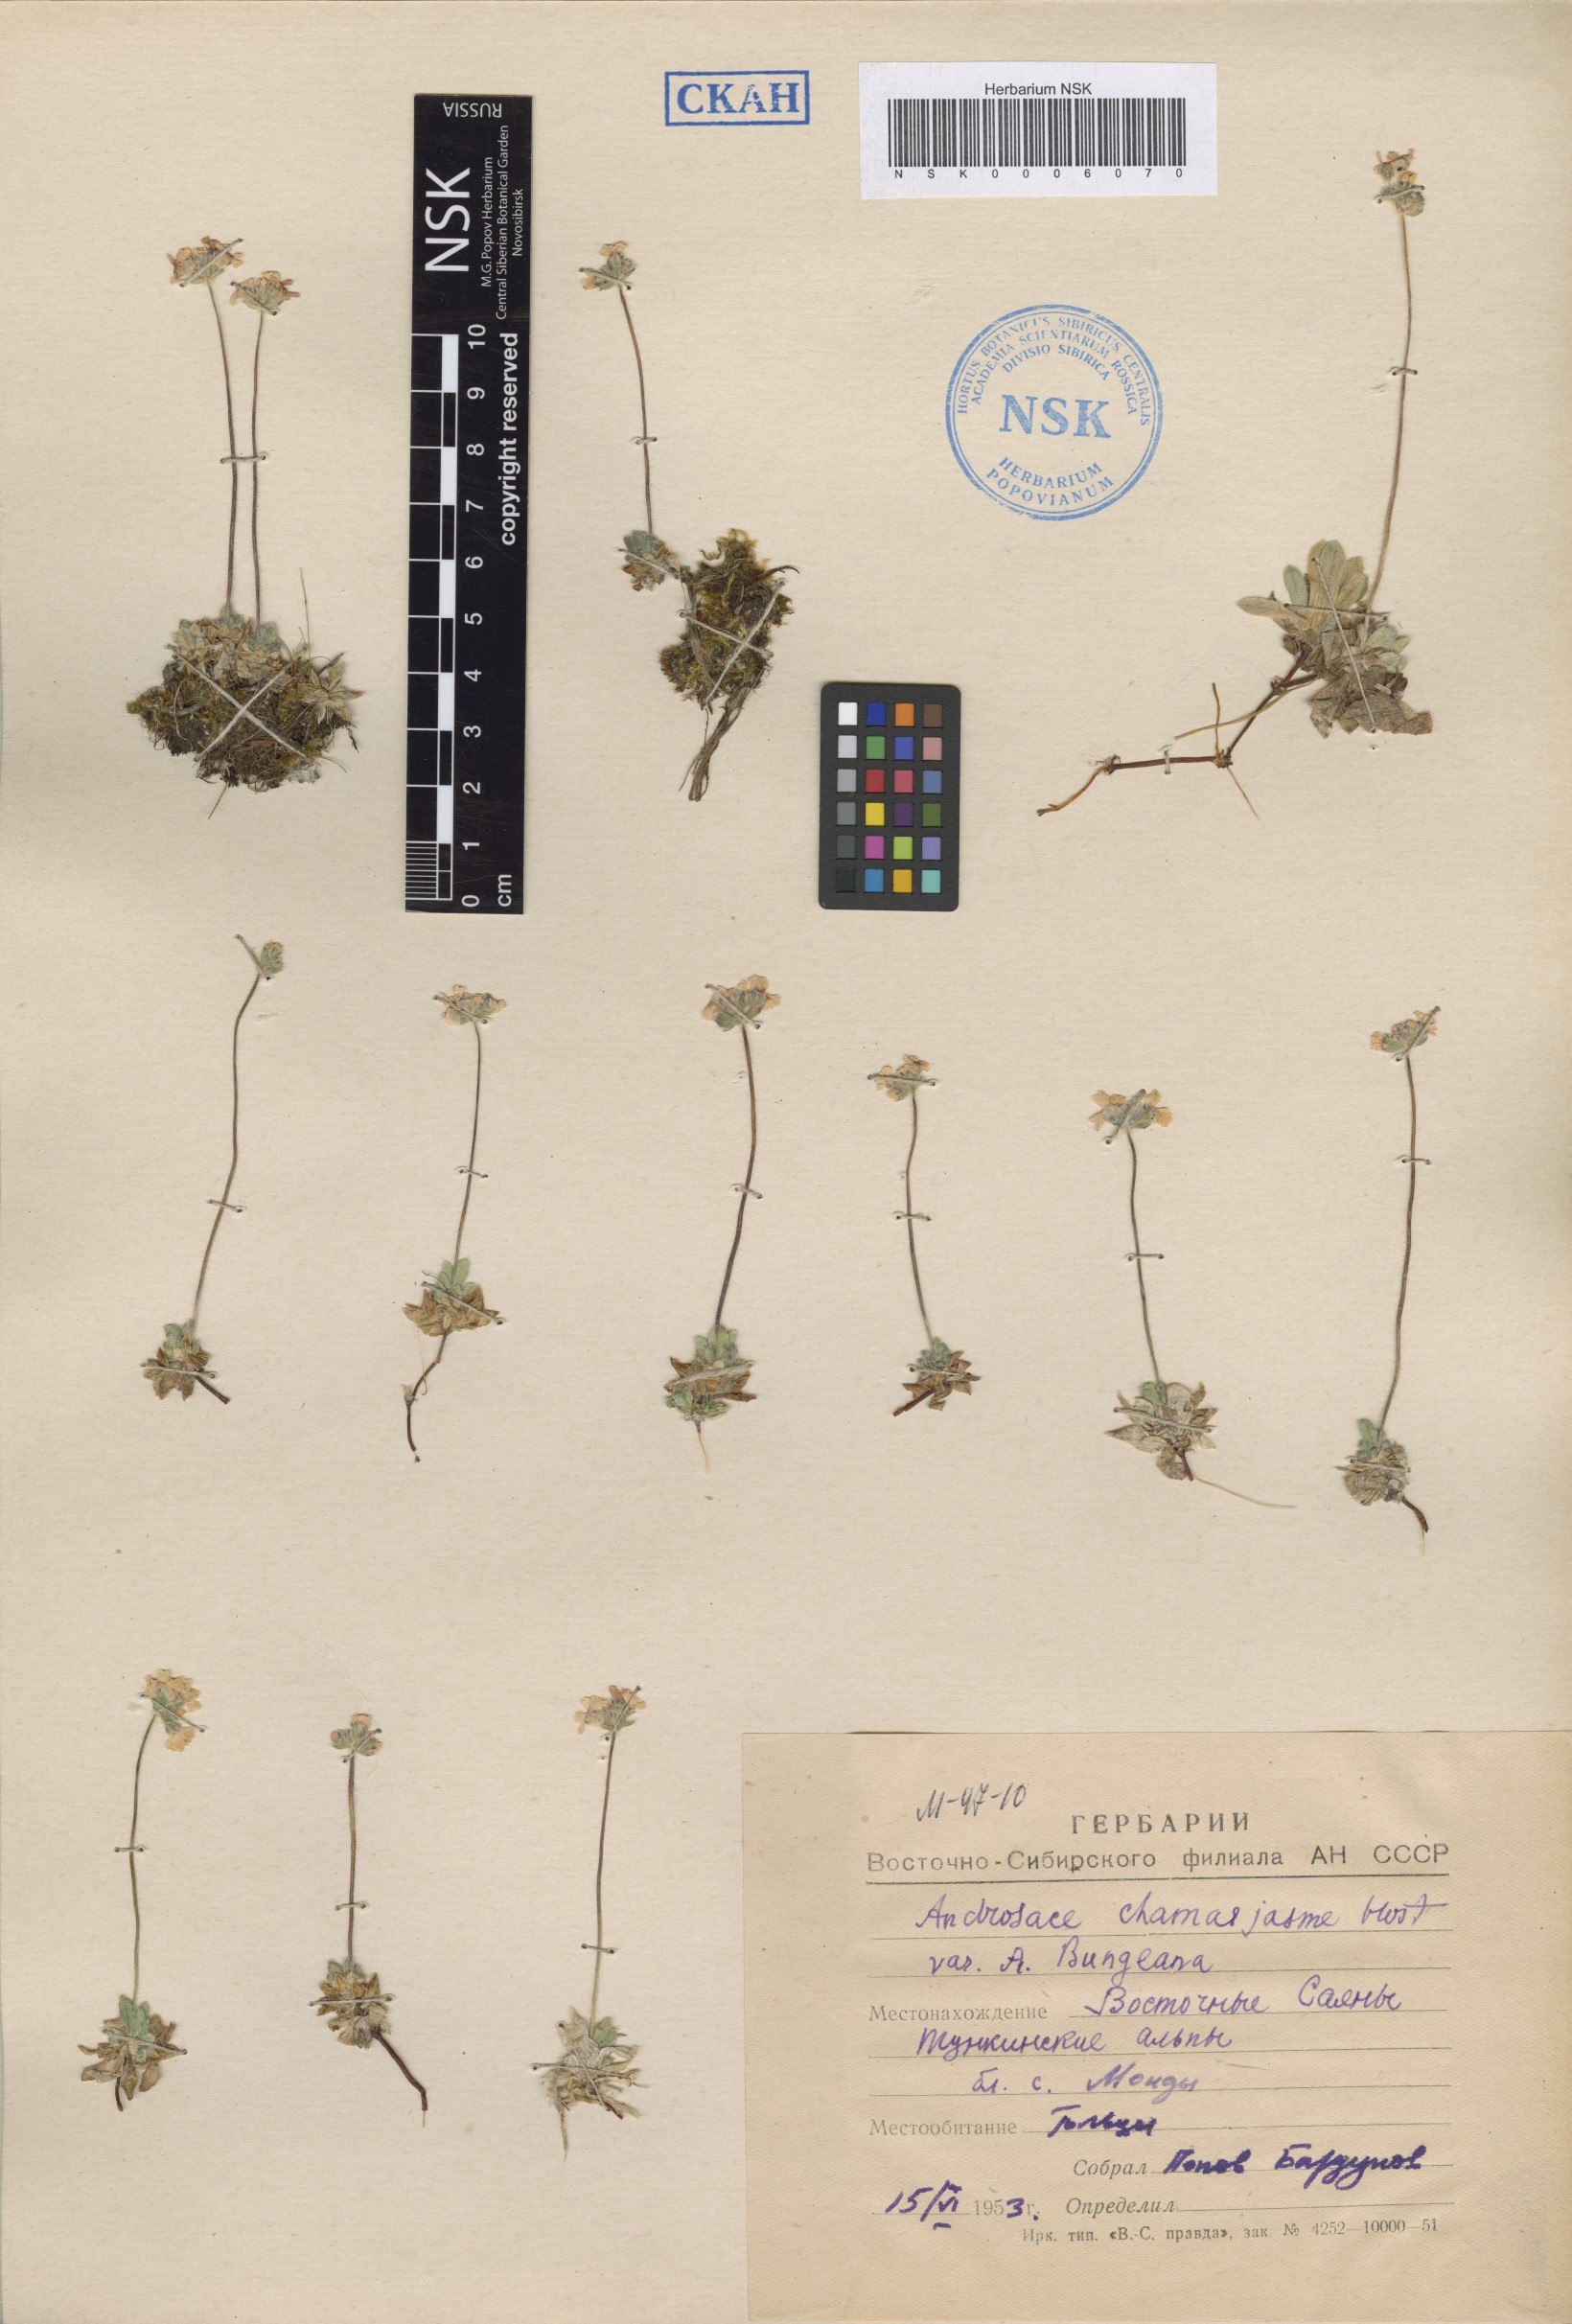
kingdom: Plantae
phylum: Tracheophyta
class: Magnoliopsida
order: Ericales
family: Primulaceae
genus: Androsace
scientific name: Androsace bungeana
